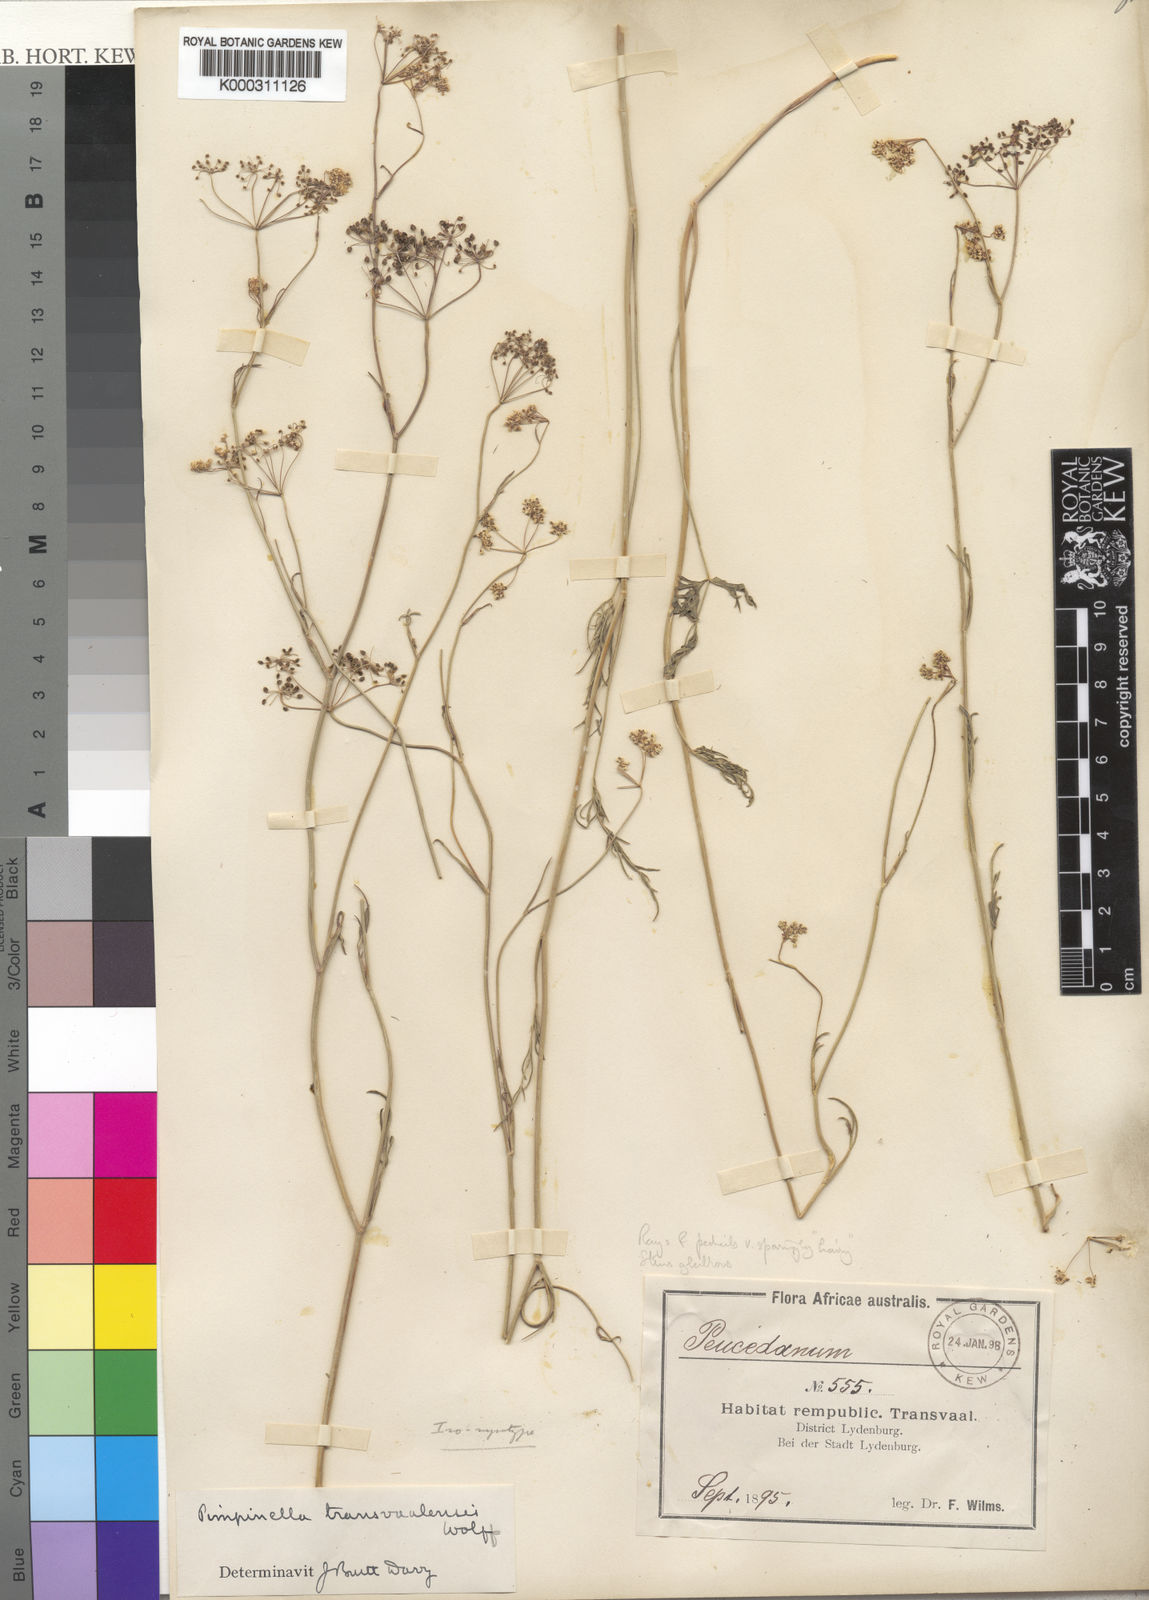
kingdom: Plantae
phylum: Tracheophyta
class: Magnoliopsida
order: Apiales
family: Apiaceae
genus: Pimpinella
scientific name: Pimpinella transvaalensis
